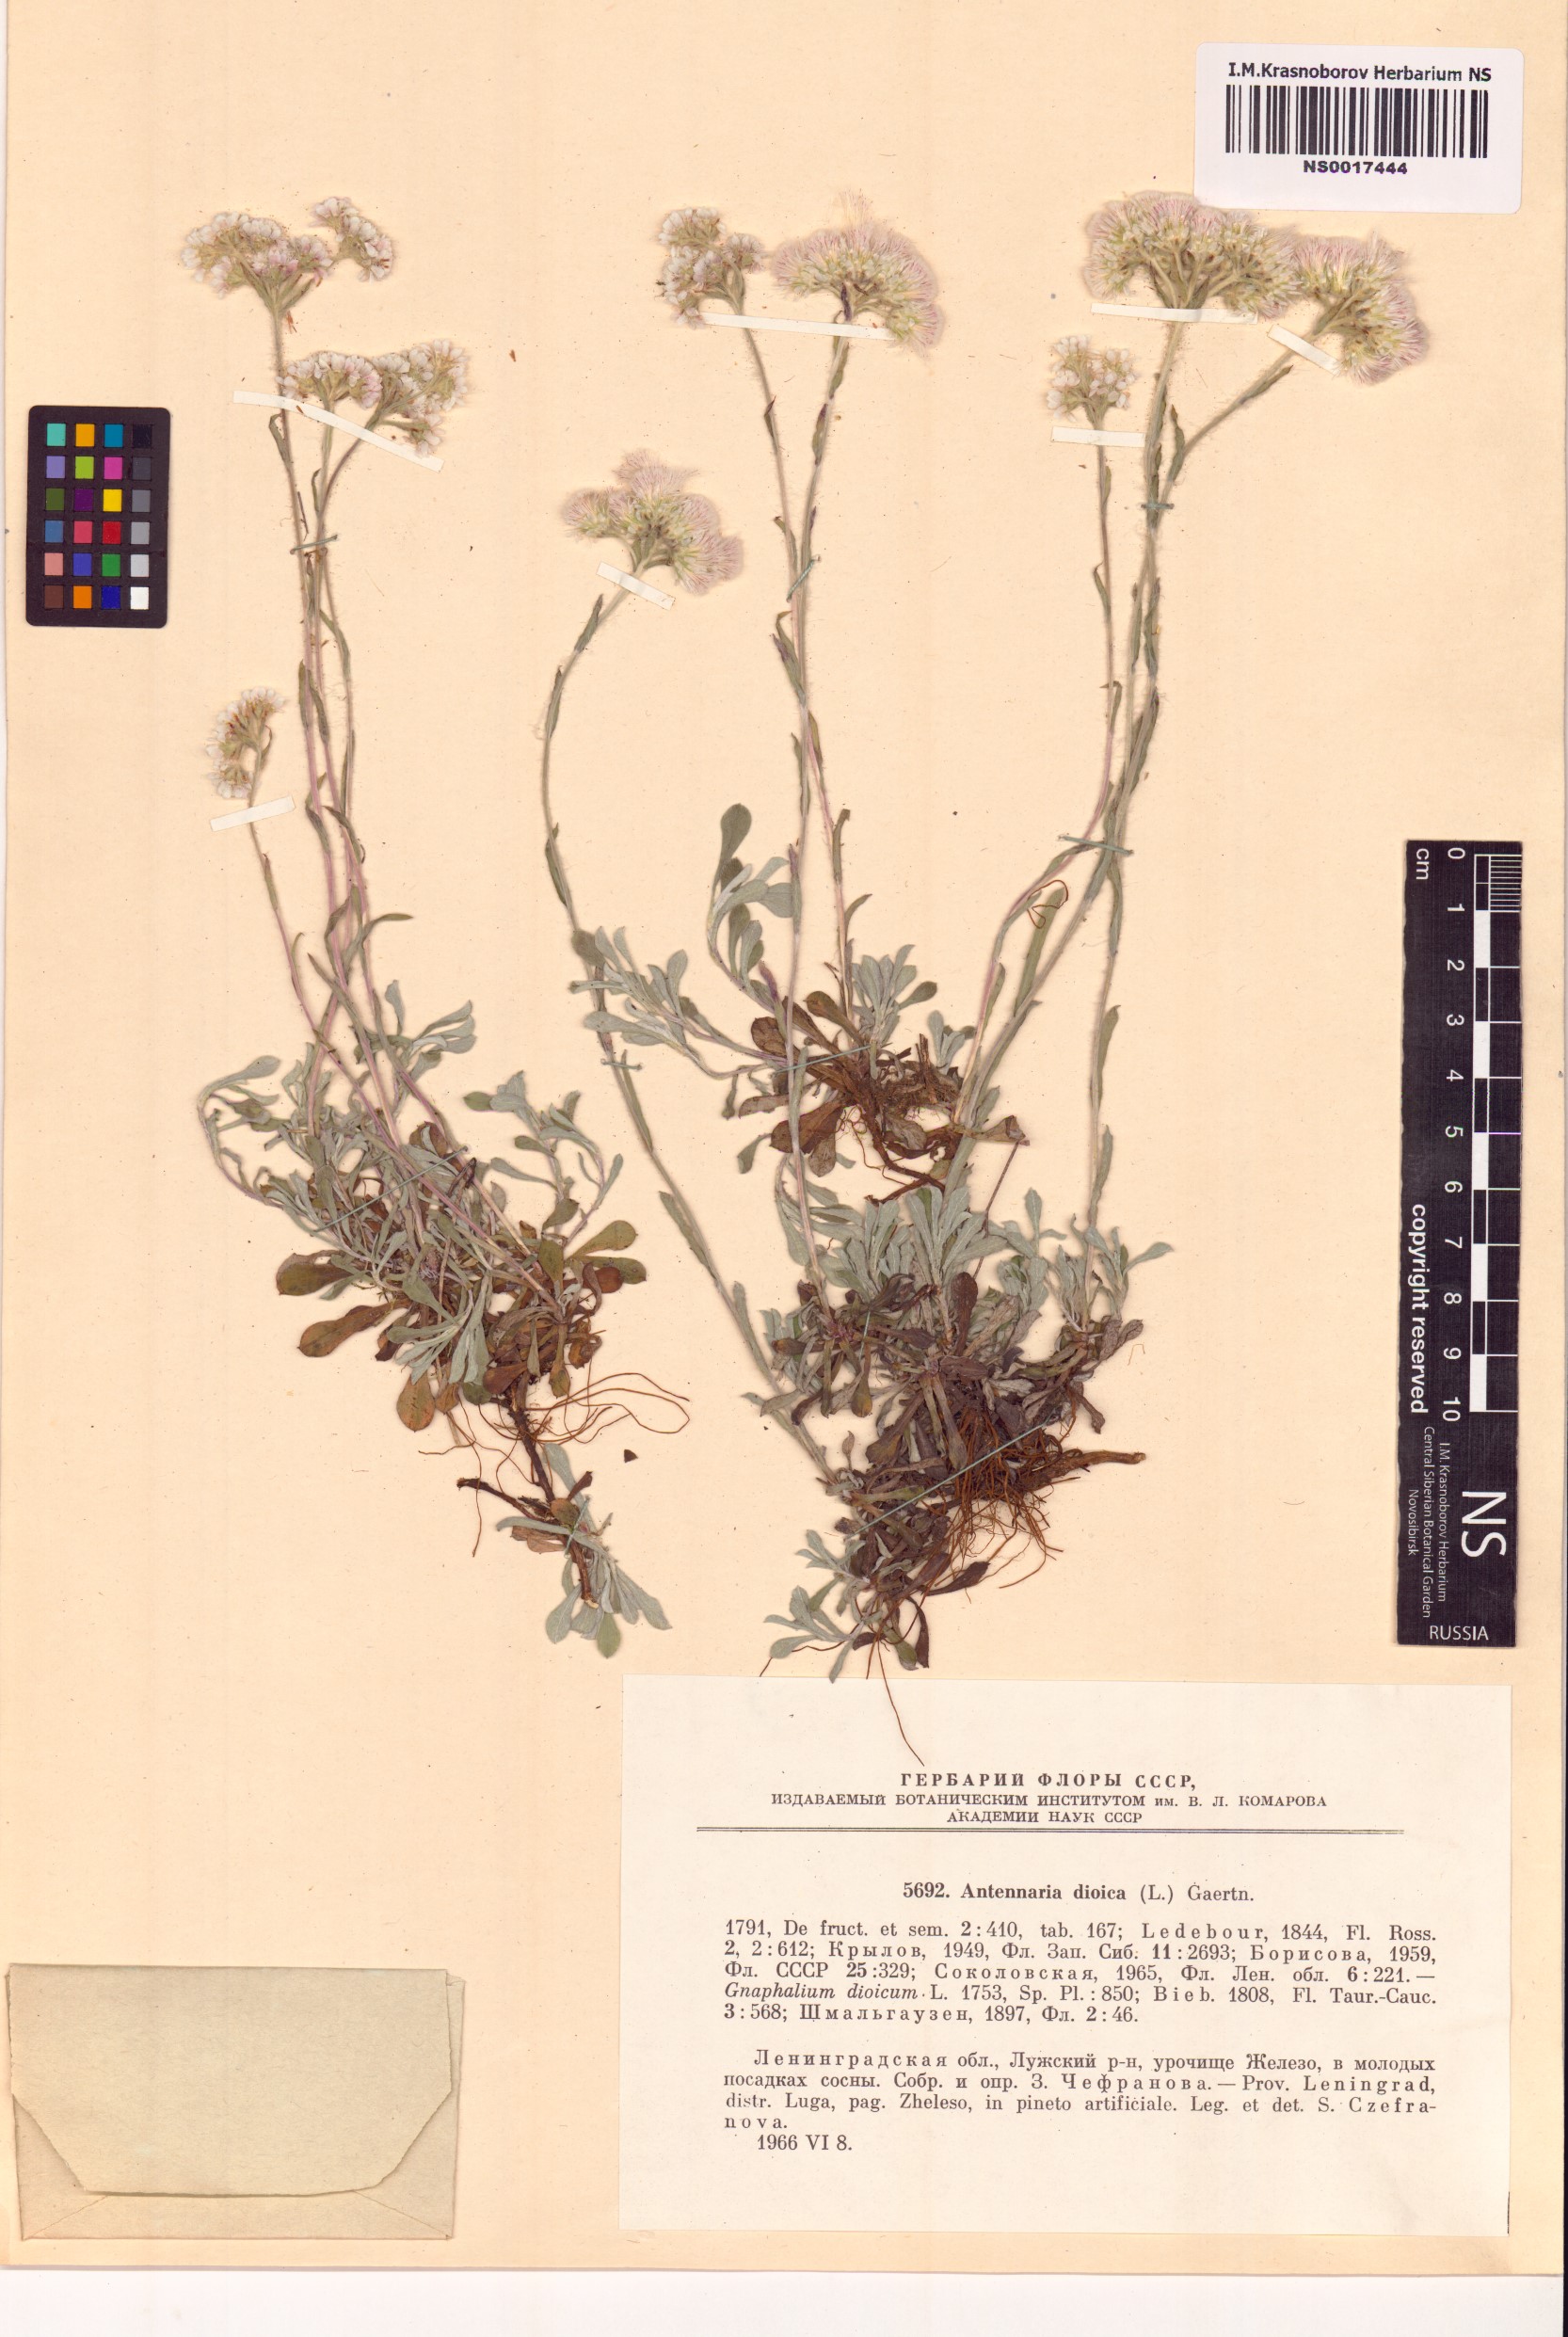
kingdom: Plantae
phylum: Tracheophyta
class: Magnoliopsida
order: Asterales
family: Asteraceae
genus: Antennaria
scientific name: Antennaria dioica
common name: Mountain everlasting
